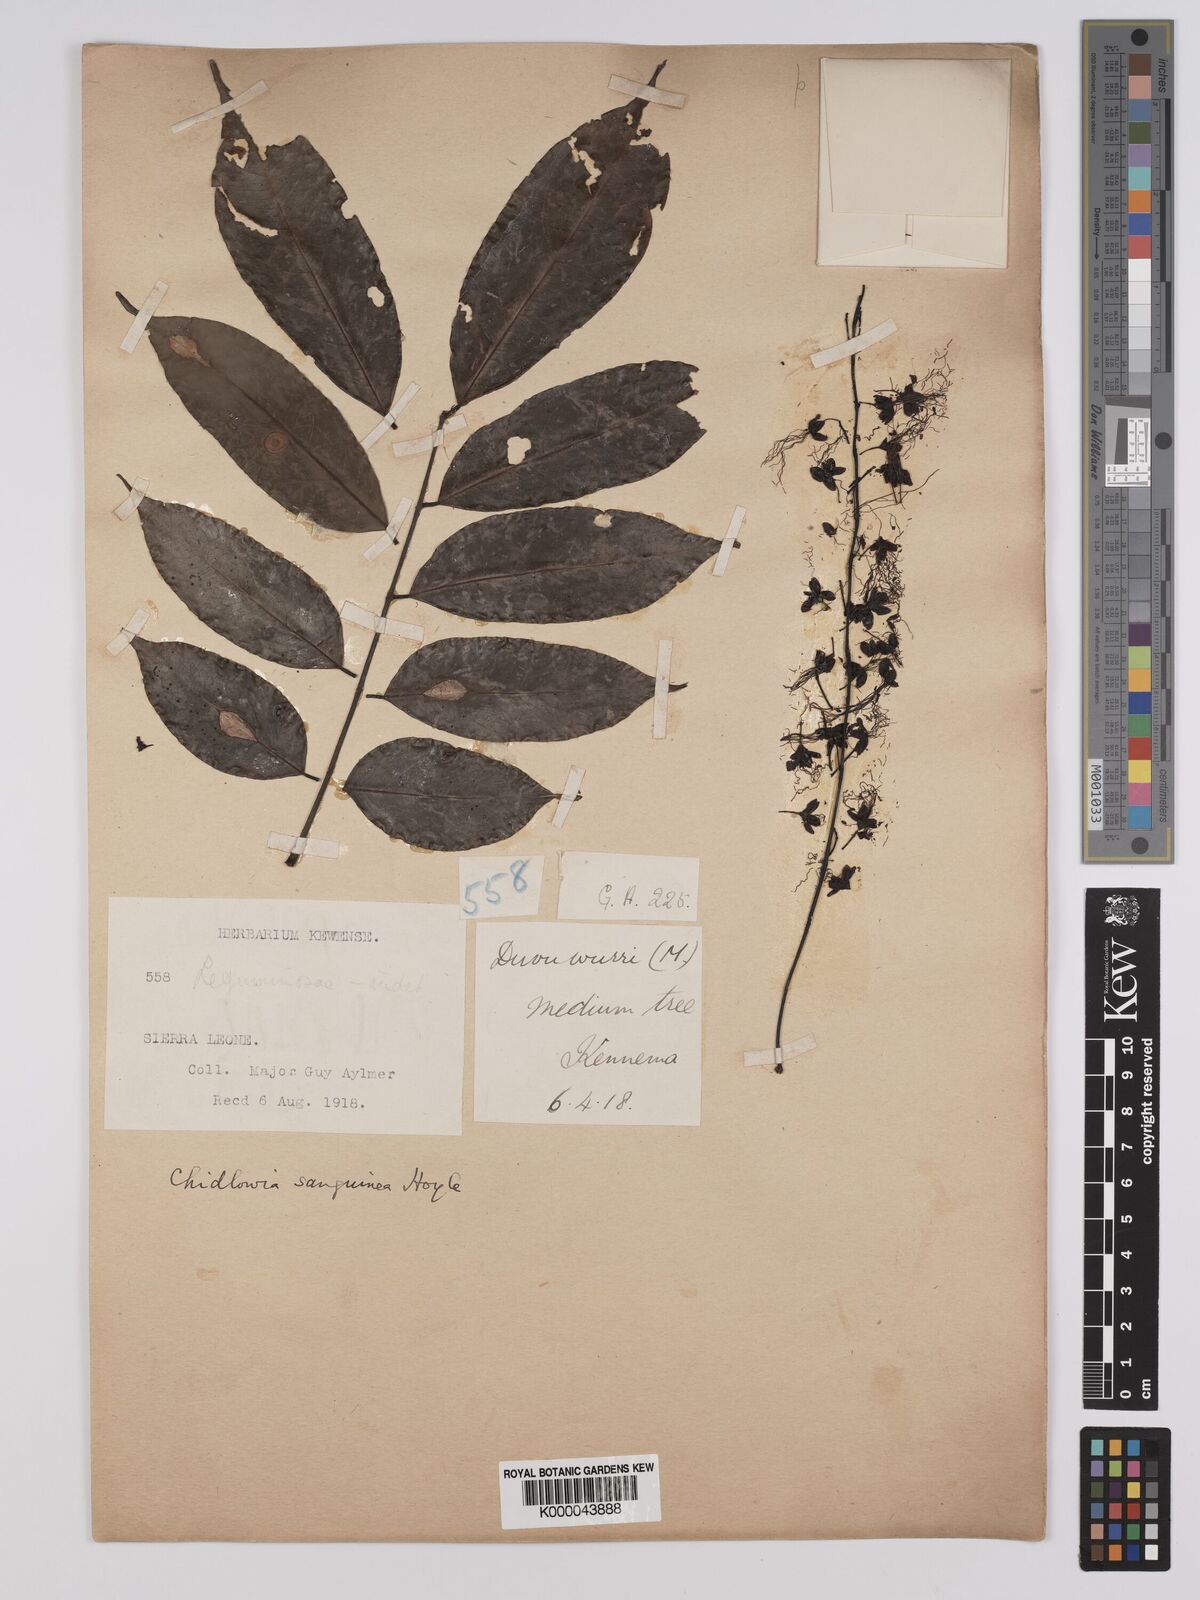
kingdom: Plantae
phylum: Tracheophyta
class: Magnoliopsida
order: Fabales
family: Fabaceae
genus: Chidlowia
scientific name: Chidlowia sanguinea
